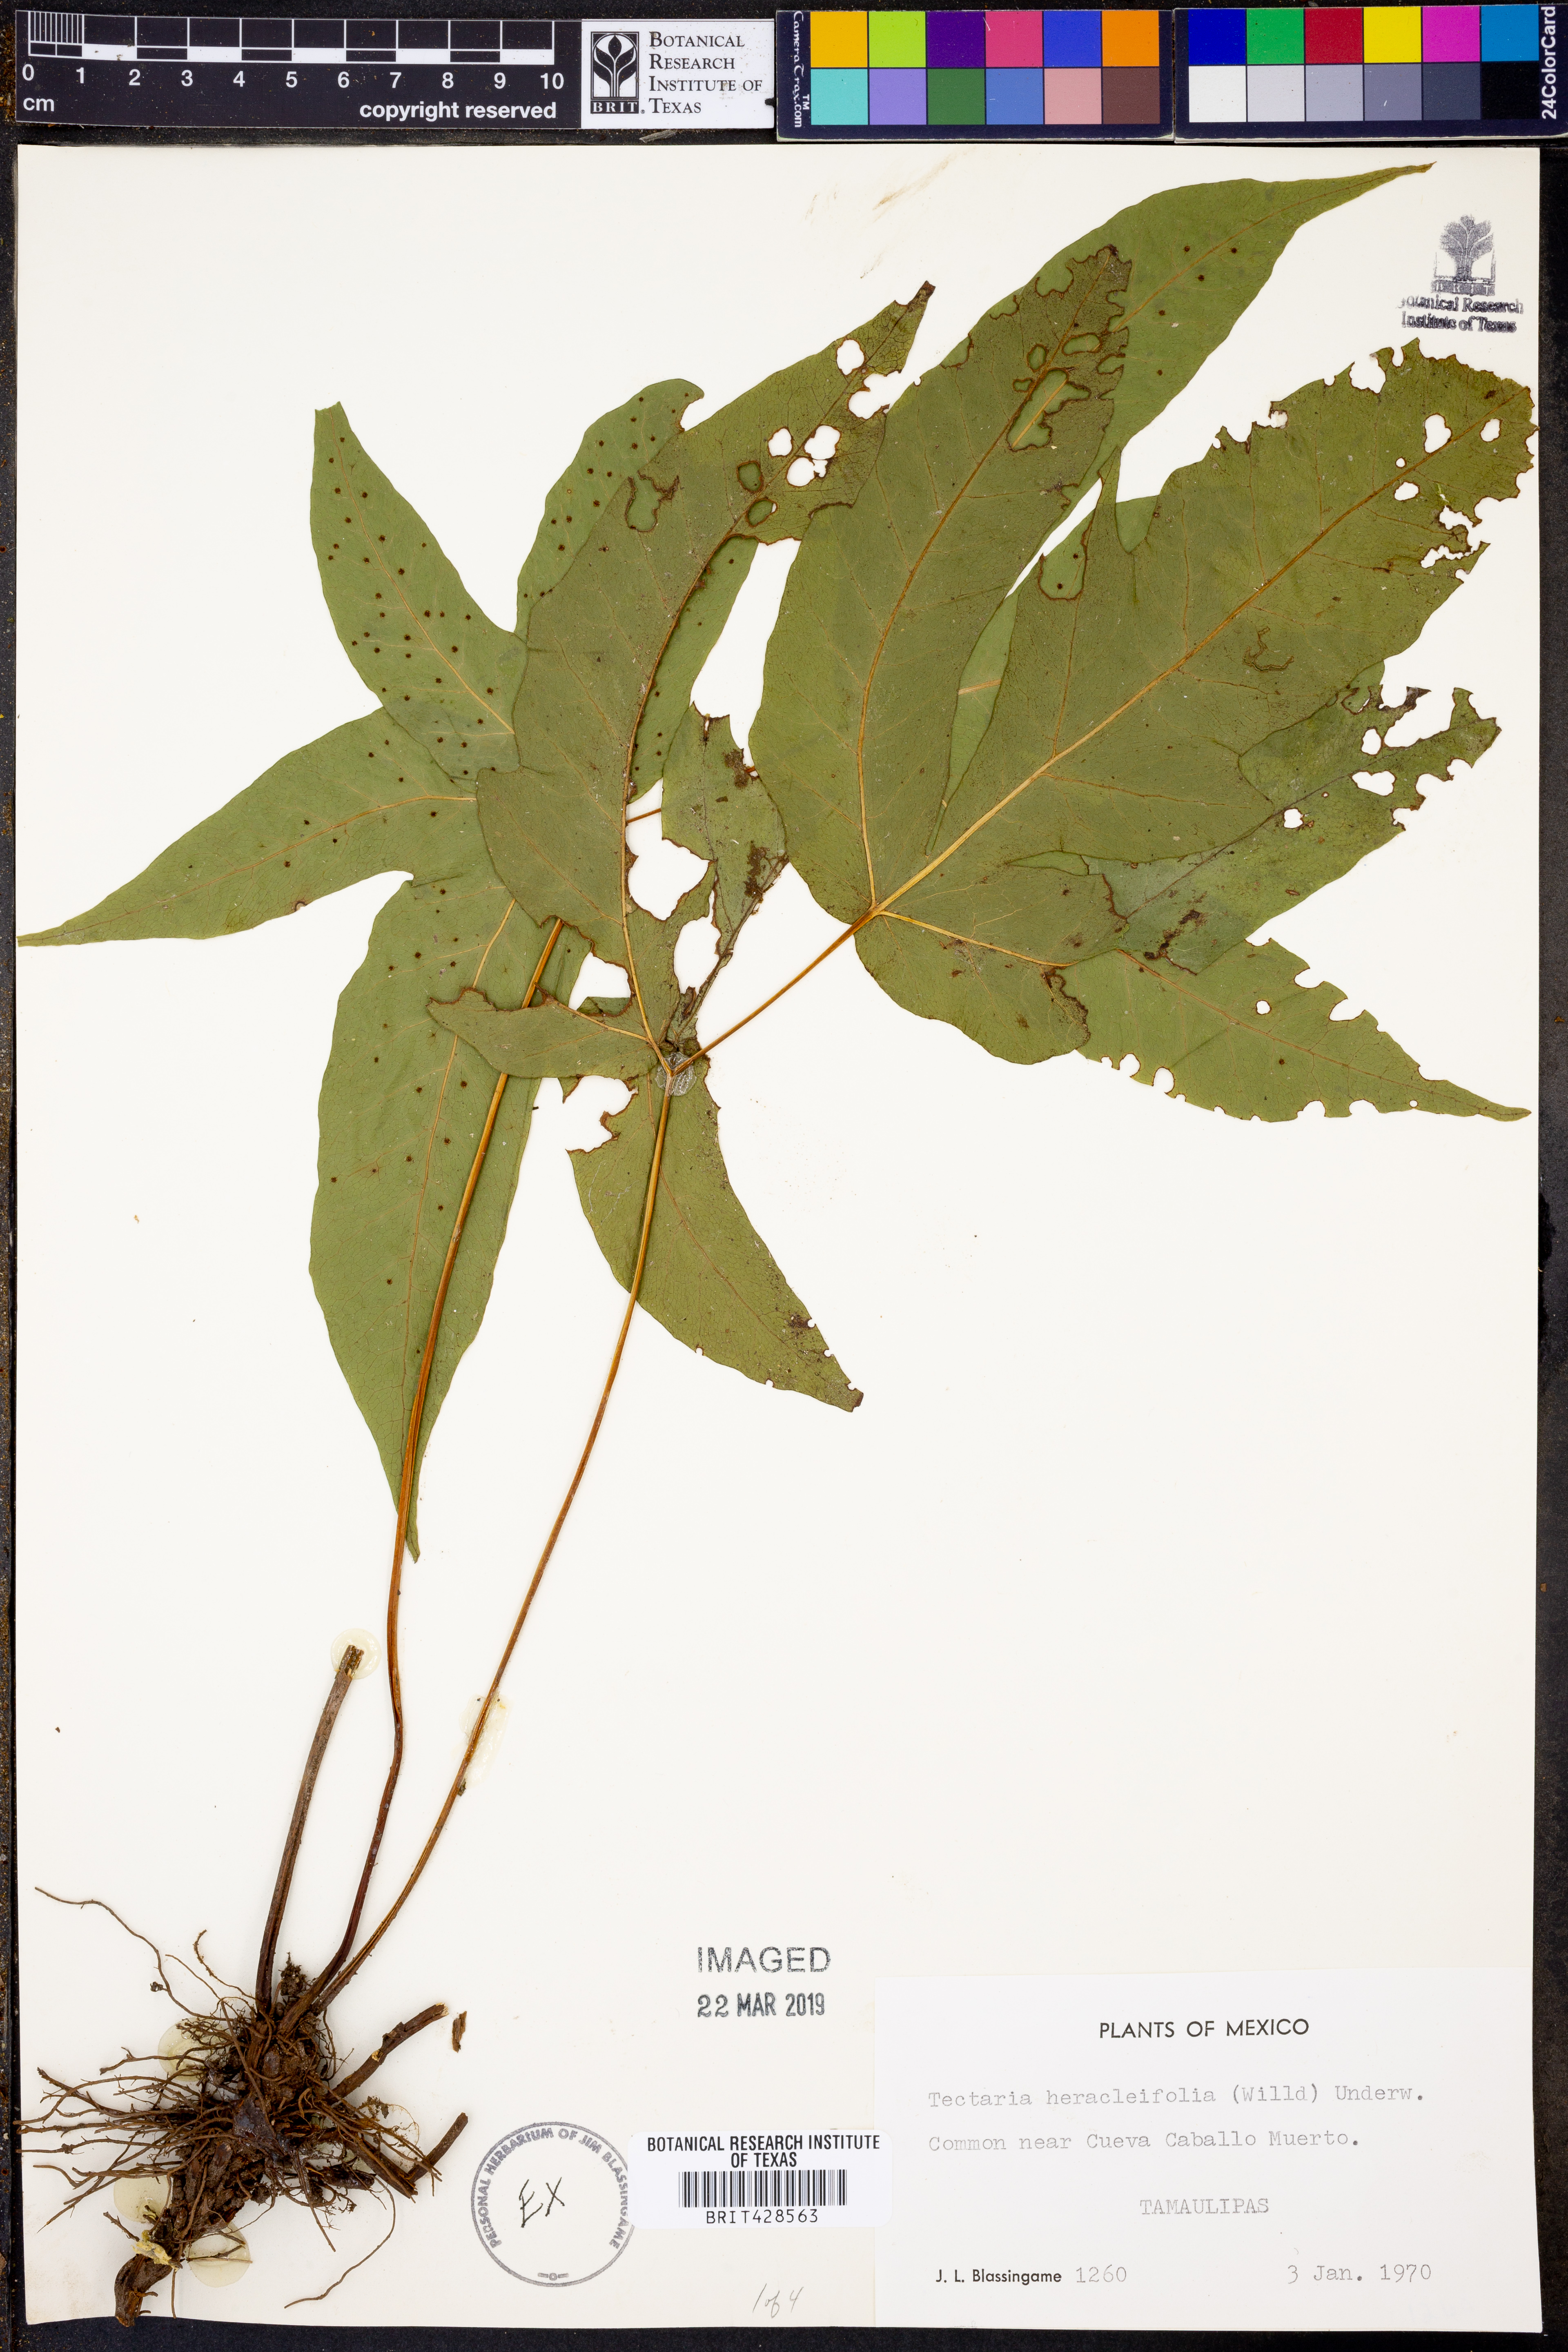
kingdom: Plantae
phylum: Tracheophyta
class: Polypodiopsida
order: Polypodiales
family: Tectariaceae
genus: Tectaria
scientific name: Tectaria heracleifolia
